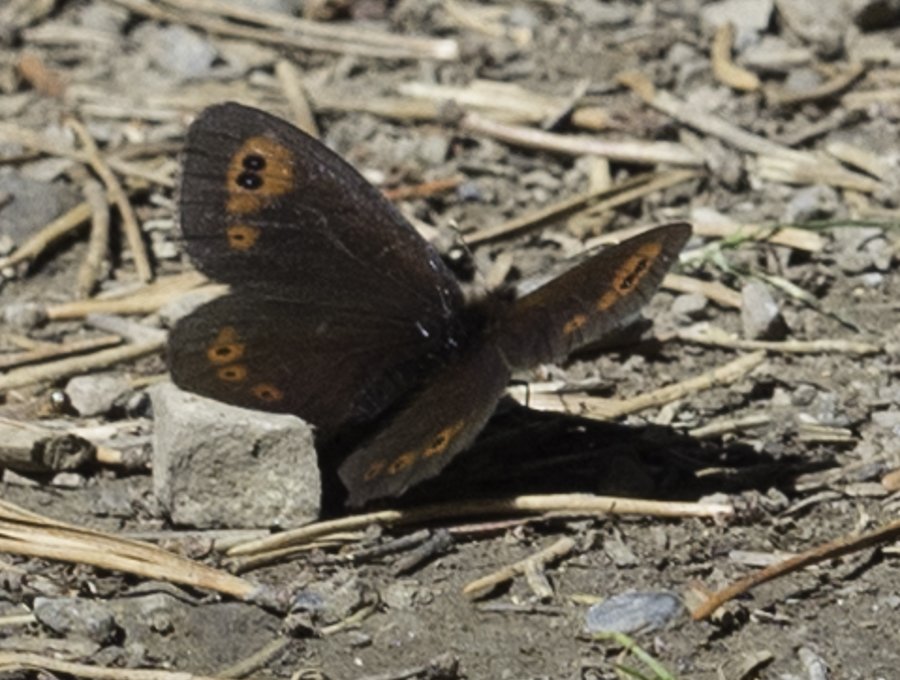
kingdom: Animalia
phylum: Arthropoda
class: Insecta
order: Lepidoptera
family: Nymphalidae
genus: Erebia
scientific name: Erebia epipsodea
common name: Common Alpine
